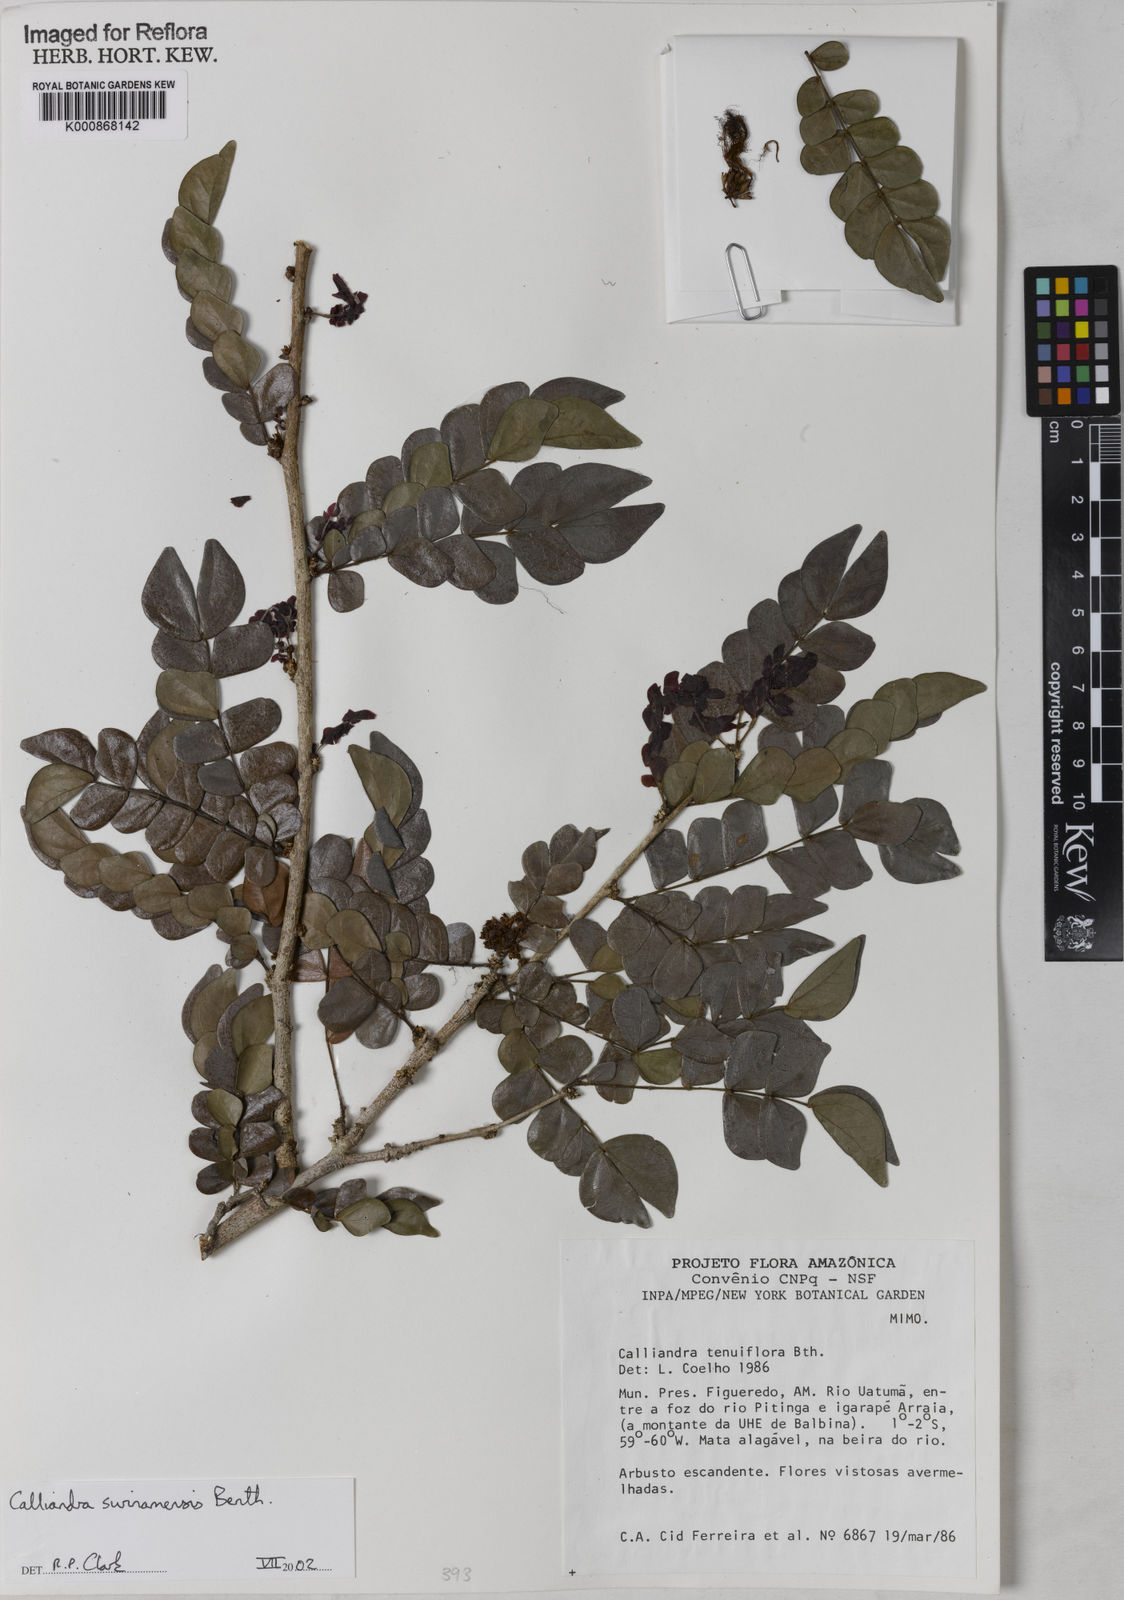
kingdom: Plantae
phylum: Tracheophyta
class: Magnoliopsida
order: Fabales
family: Fabaceae
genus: Calliandra
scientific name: Calliandra surinamensis
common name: Pink powder puff
